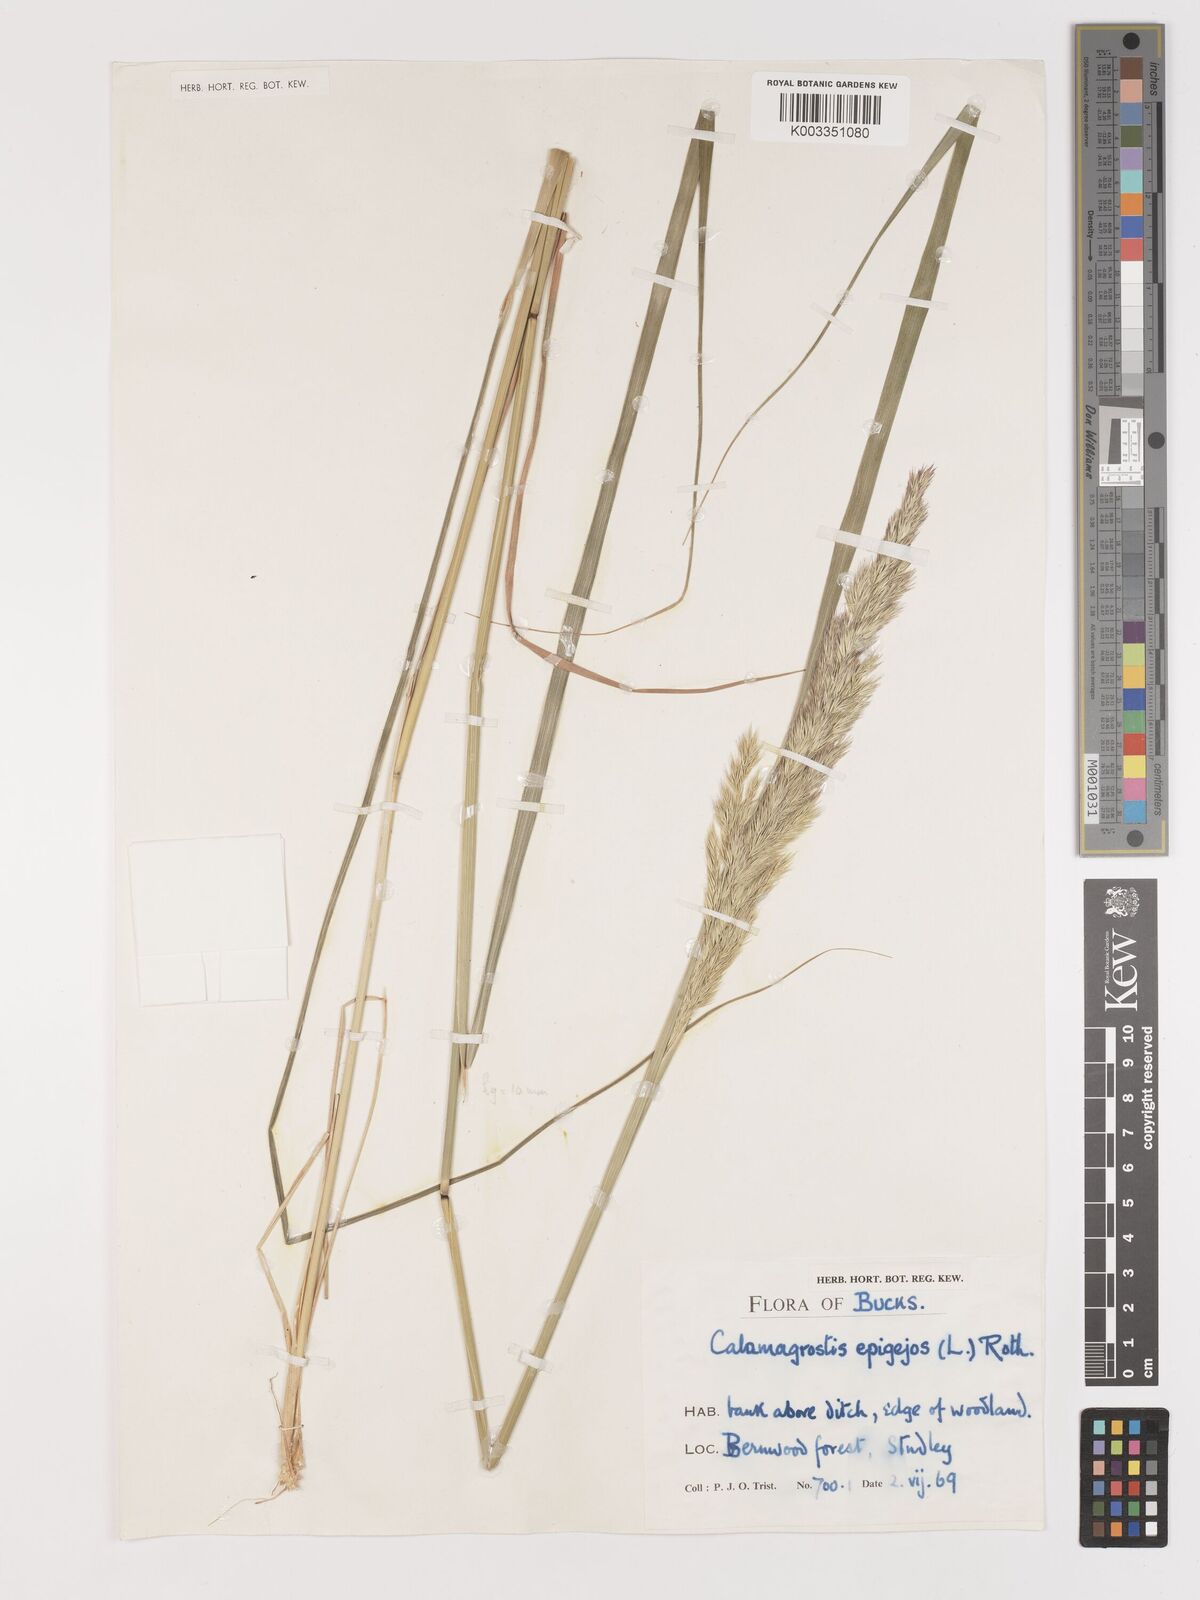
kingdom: Plantae
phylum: Tracheophyta
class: Liliopsida
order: Poales
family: Poaceae
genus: Calamagrostis
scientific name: Calamagrostis epigejos
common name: Wood small-reed
